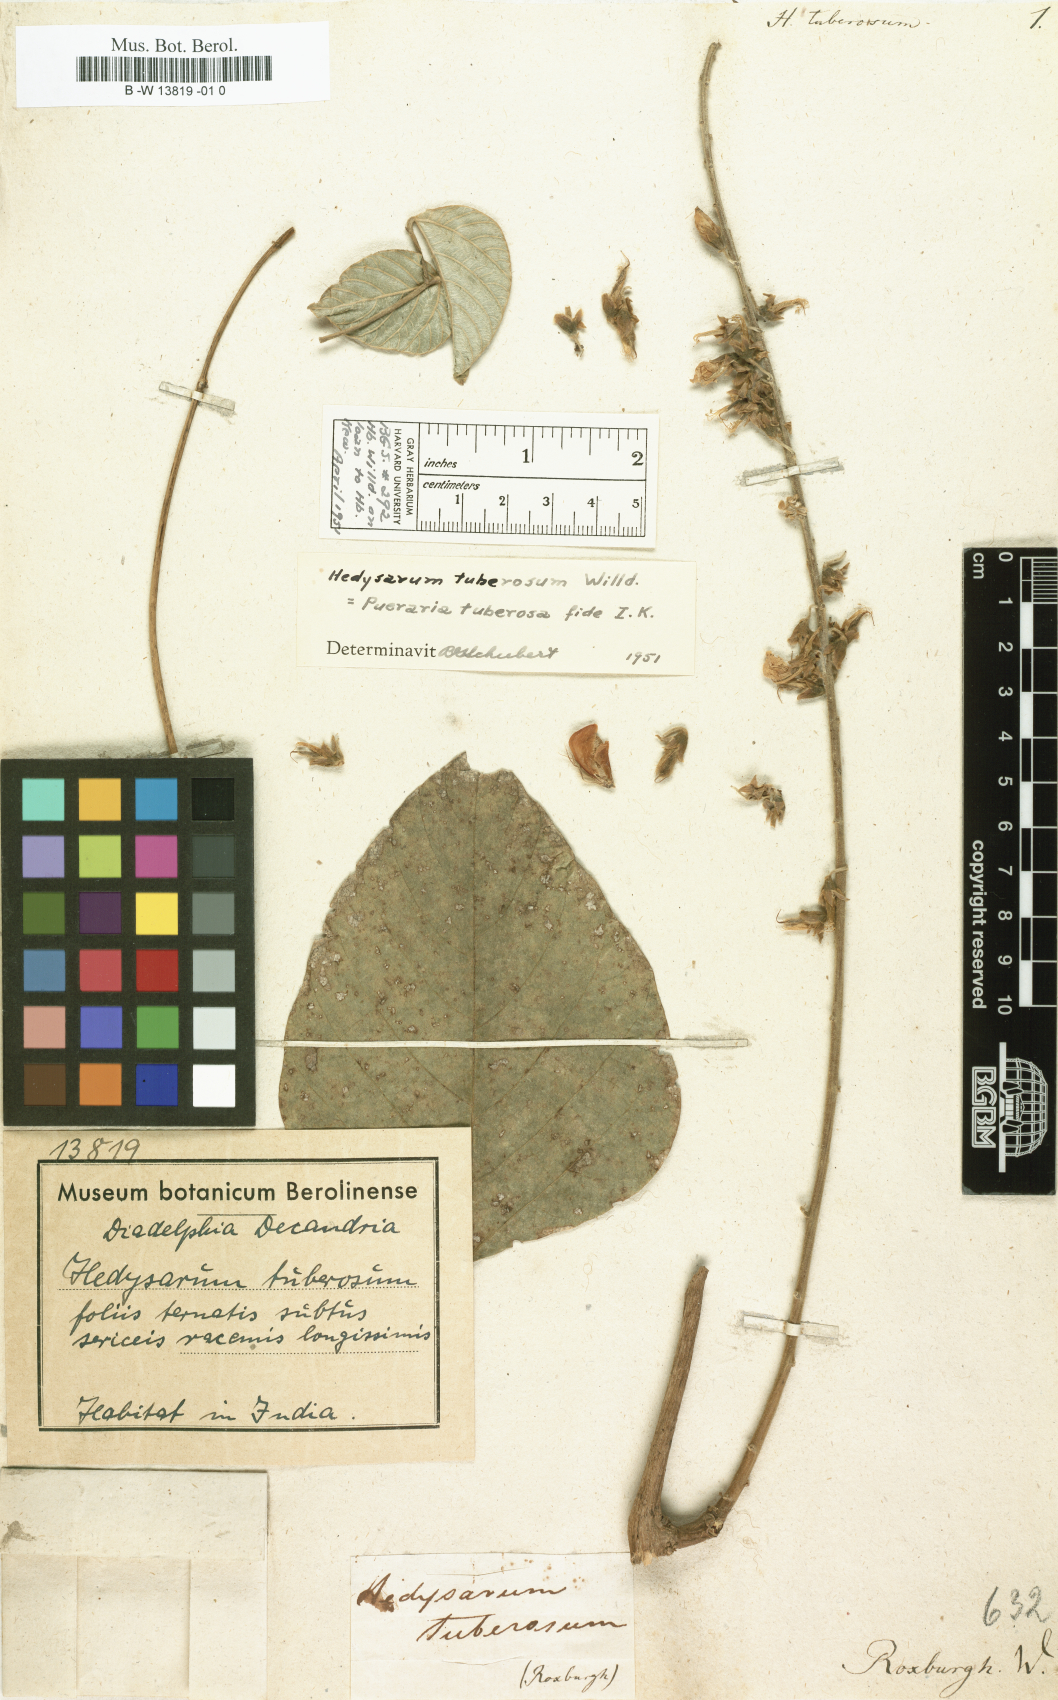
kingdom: Plantae
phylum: Tracheophyta
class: Magnoliopsida
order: Fabales
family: Fabaceae
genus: Pueraria
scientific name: Pueraria tuberosa
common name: Nepalese kudzu
